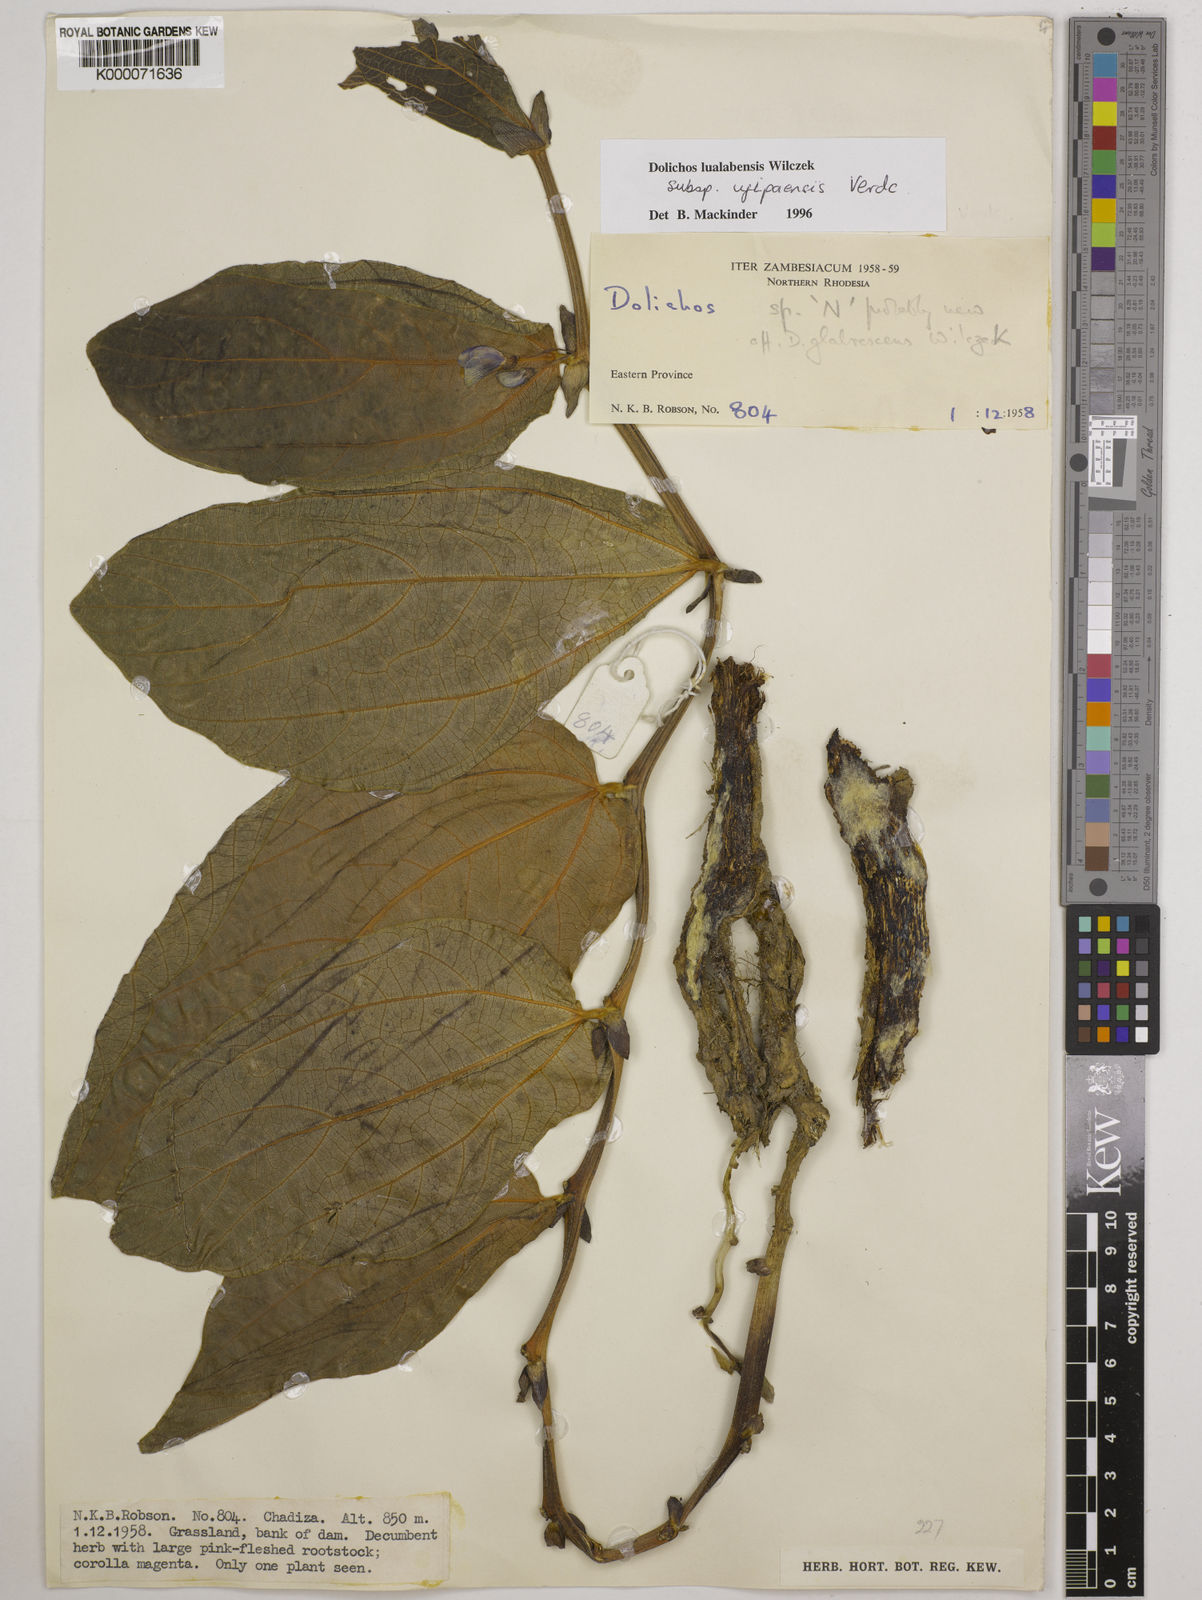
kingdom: Plantae
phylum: Tracheophyta
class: Magnoliopsida
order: Fabales
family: Fabaceae
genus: Dolichos
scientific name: Dolichos lualabensis
